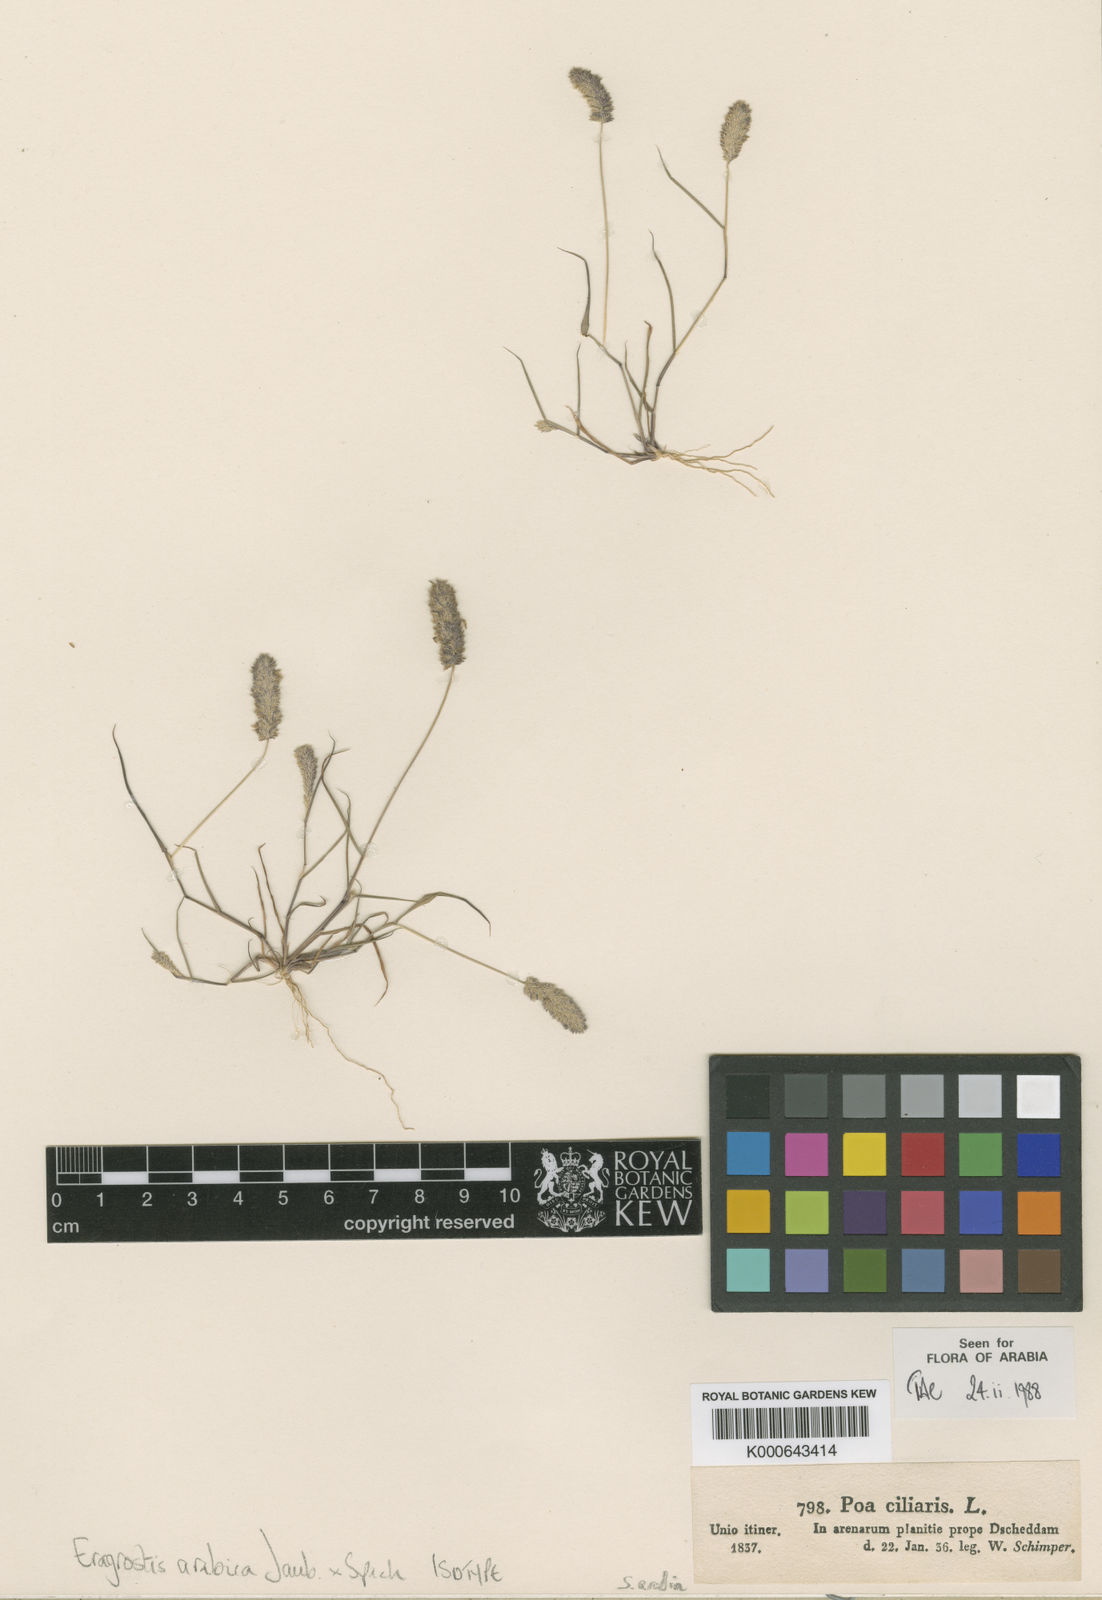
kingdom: Plantae
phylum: Tracheophyta
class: Liliopsida
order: Poales
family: Poaceae
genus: Eragrostis
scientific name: Eragrostis ciliaris
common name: Gophertail lovegrass
